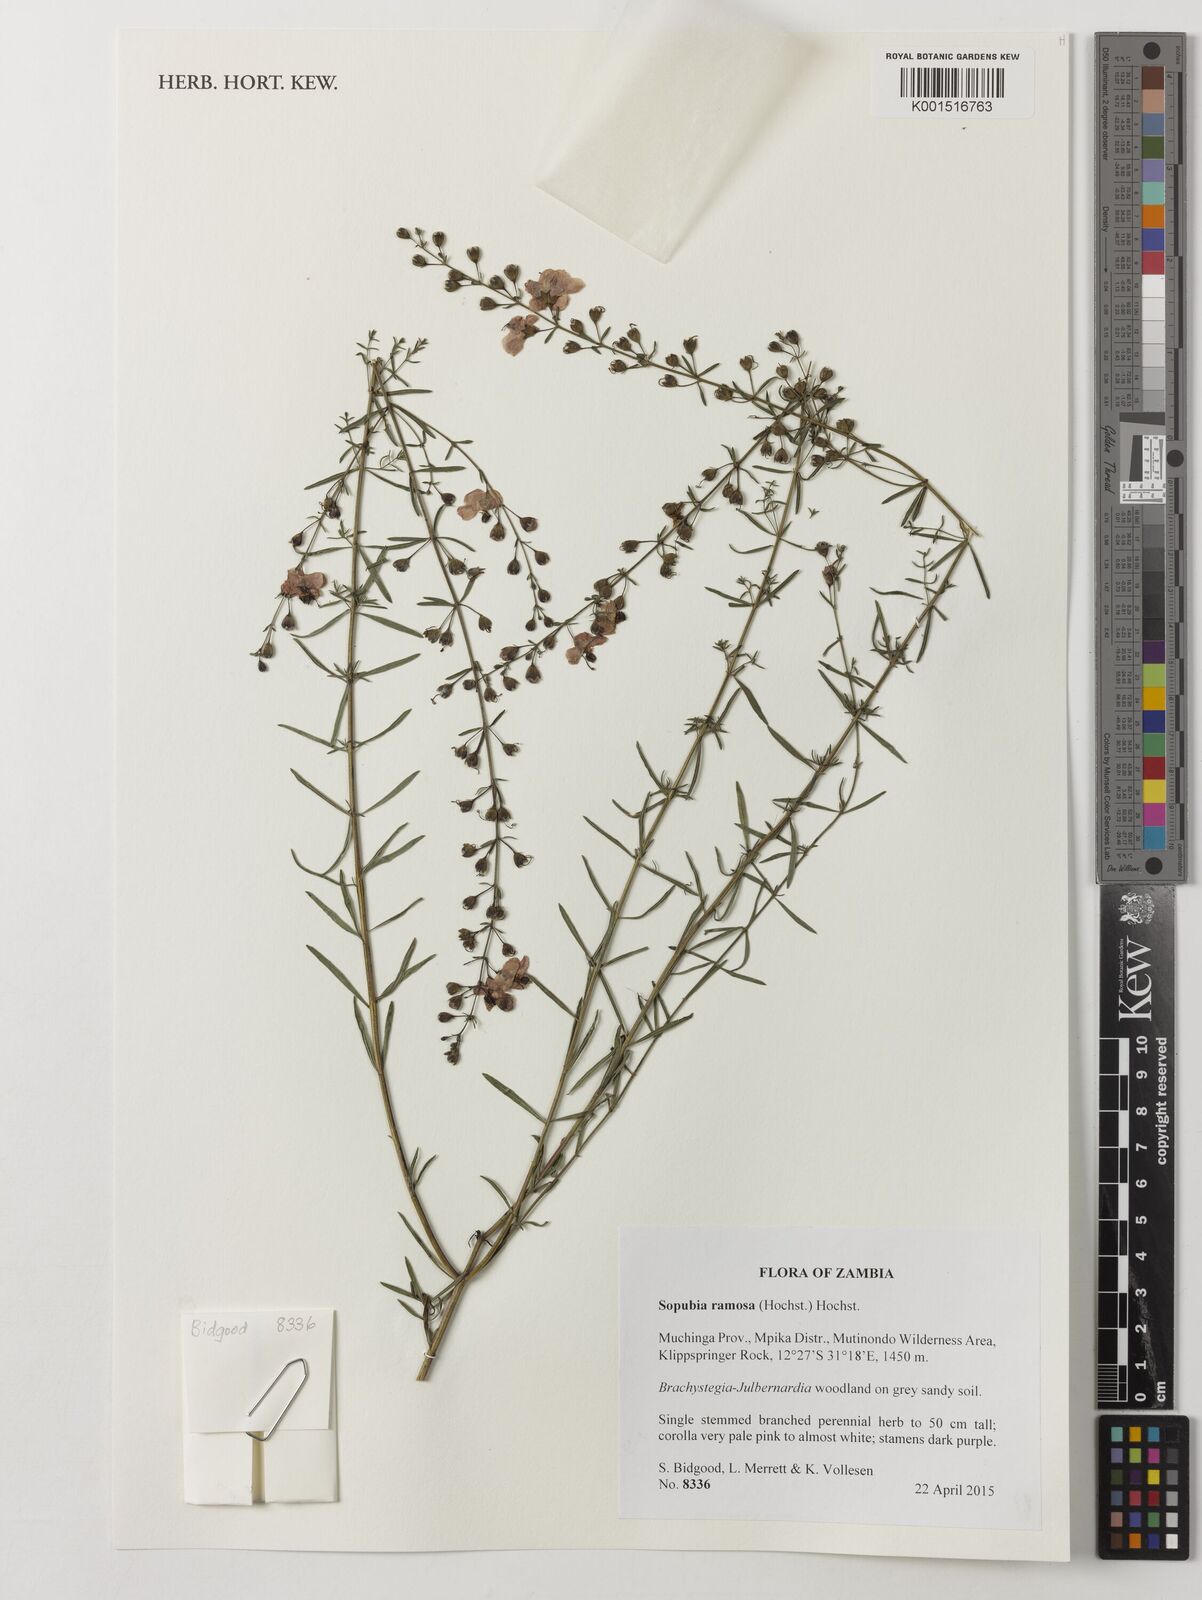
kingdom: Plantae
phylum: Tracheophyta
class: Magnoliopsida
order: Lamiales
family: Orobanchaceae
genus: Sopubia
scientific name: Sopubia ramosa
